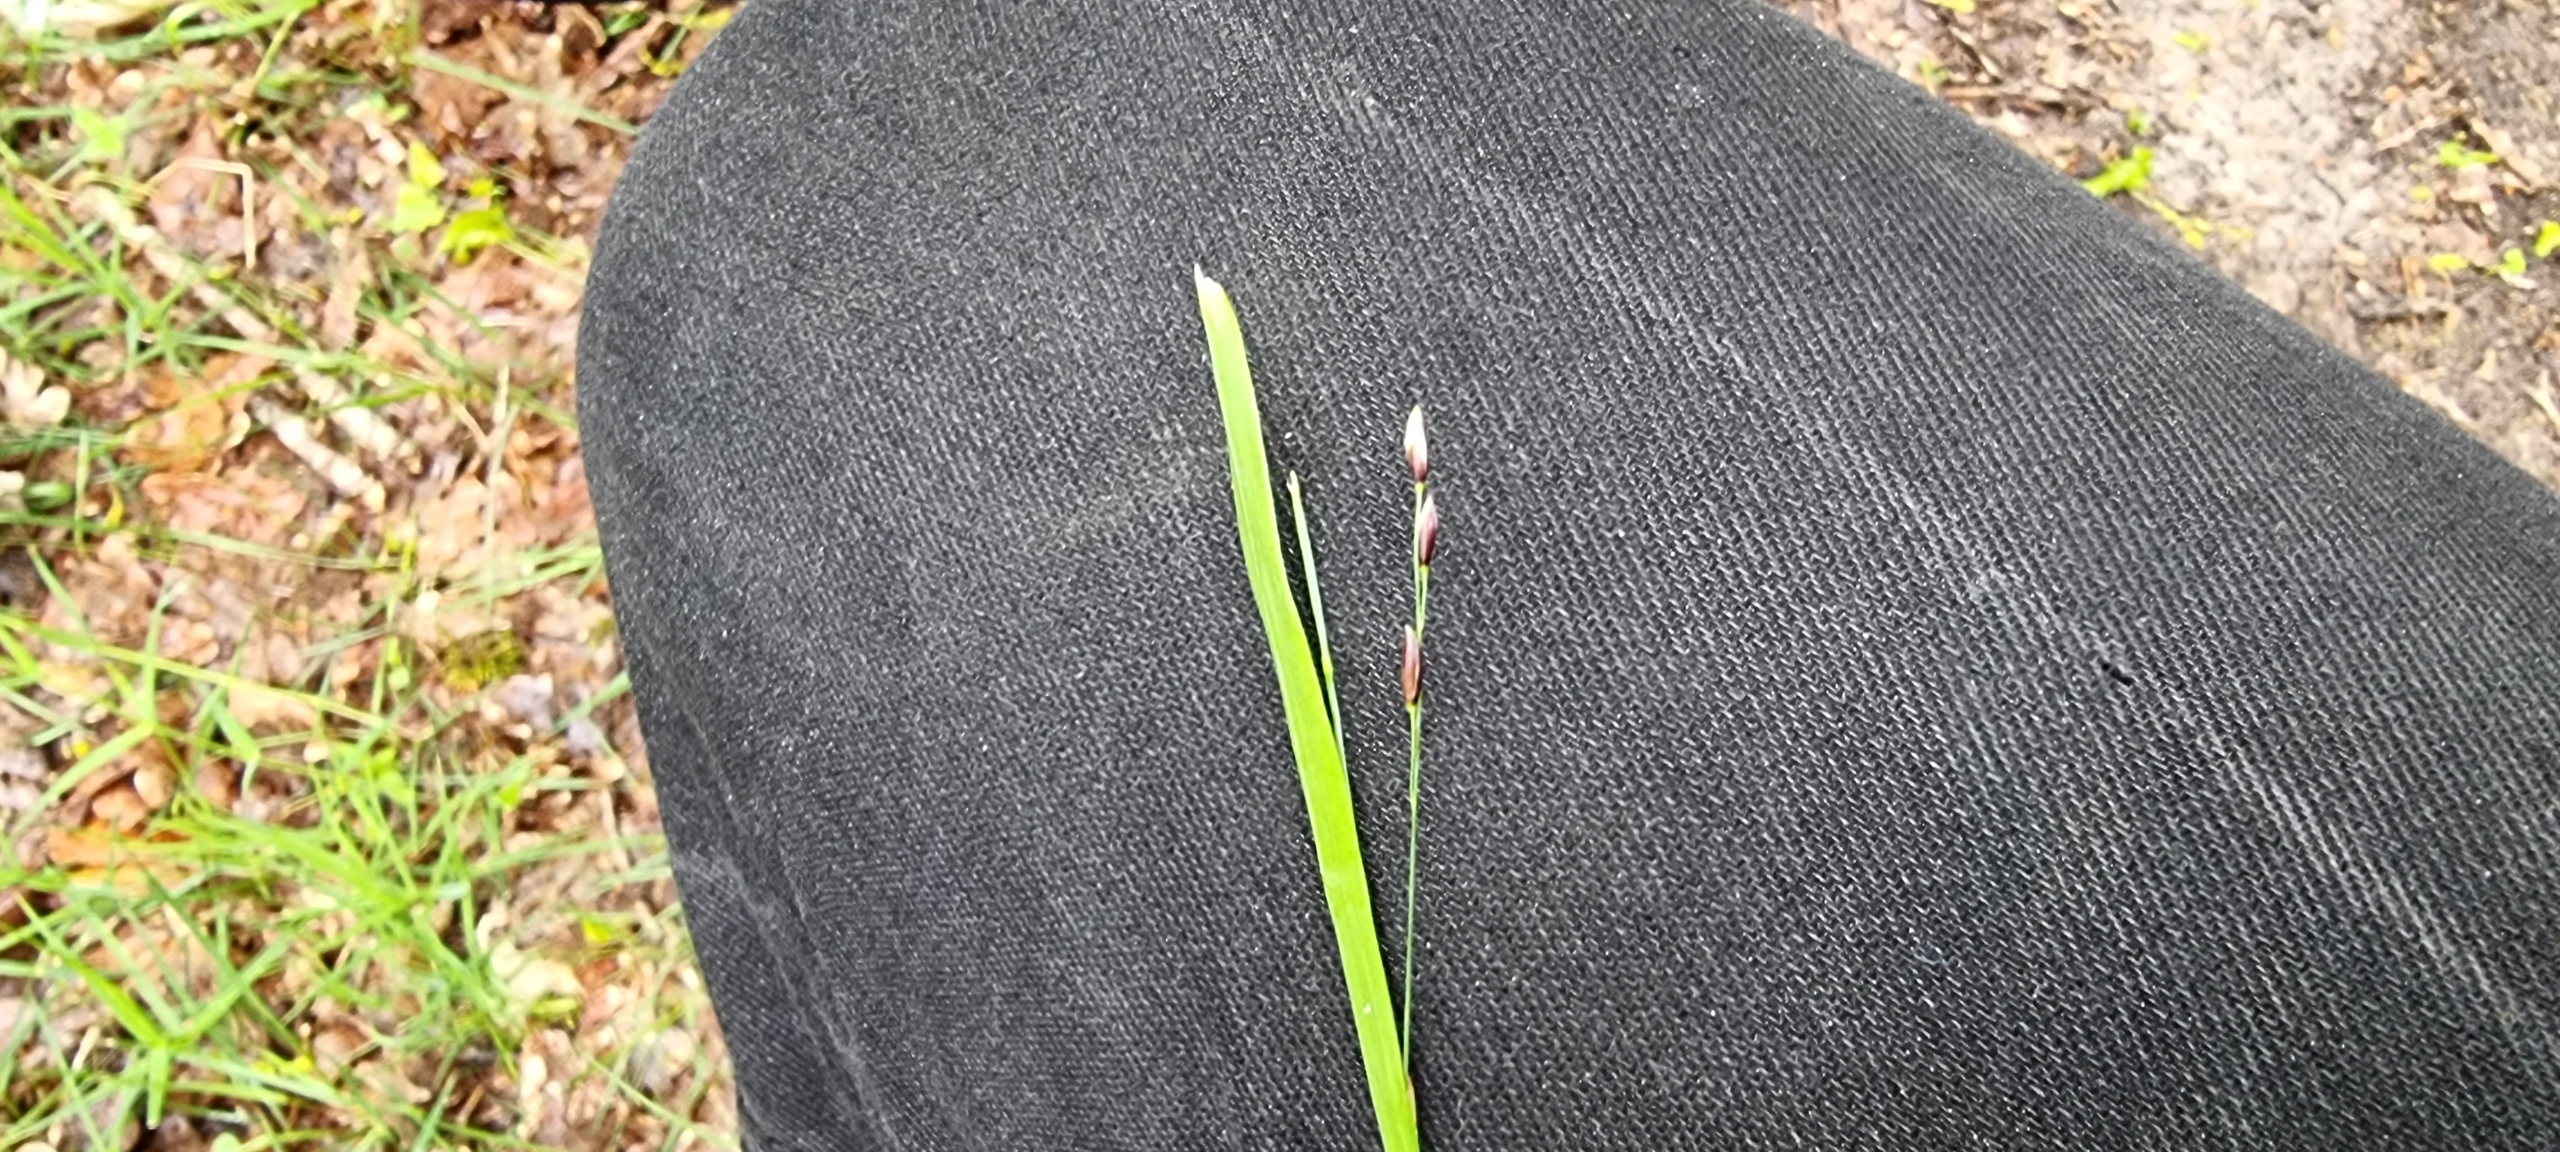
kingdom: Plantae
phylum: Tracheophyta
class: Liliopsida
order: Poales
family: Poaceae
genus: Melica
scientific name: Melica uniflora
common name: Enblomstret flitteraks
